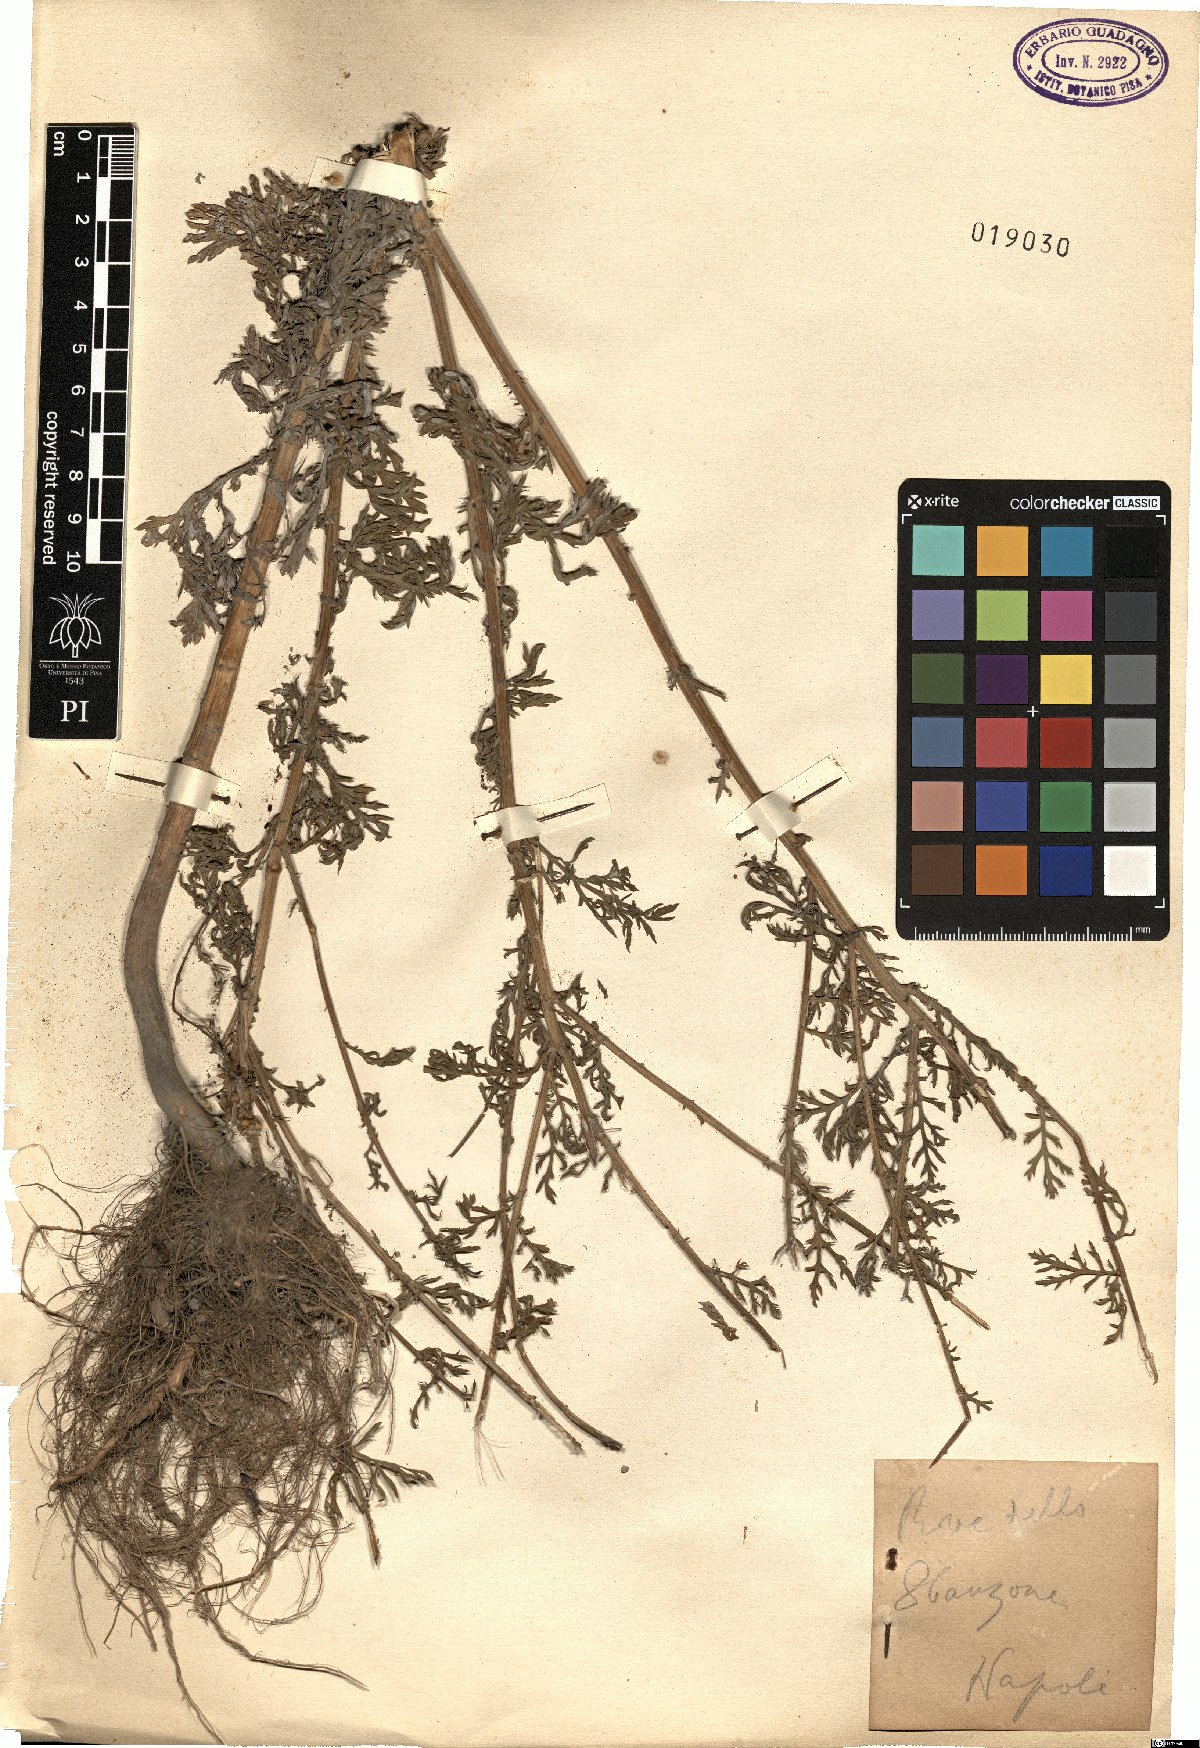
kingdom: Plantae
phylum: Tracheophyta
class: Magnoliopsida
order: Asterales
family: Asteraceae
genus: Pyrethrum
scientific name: Pyrethrum
